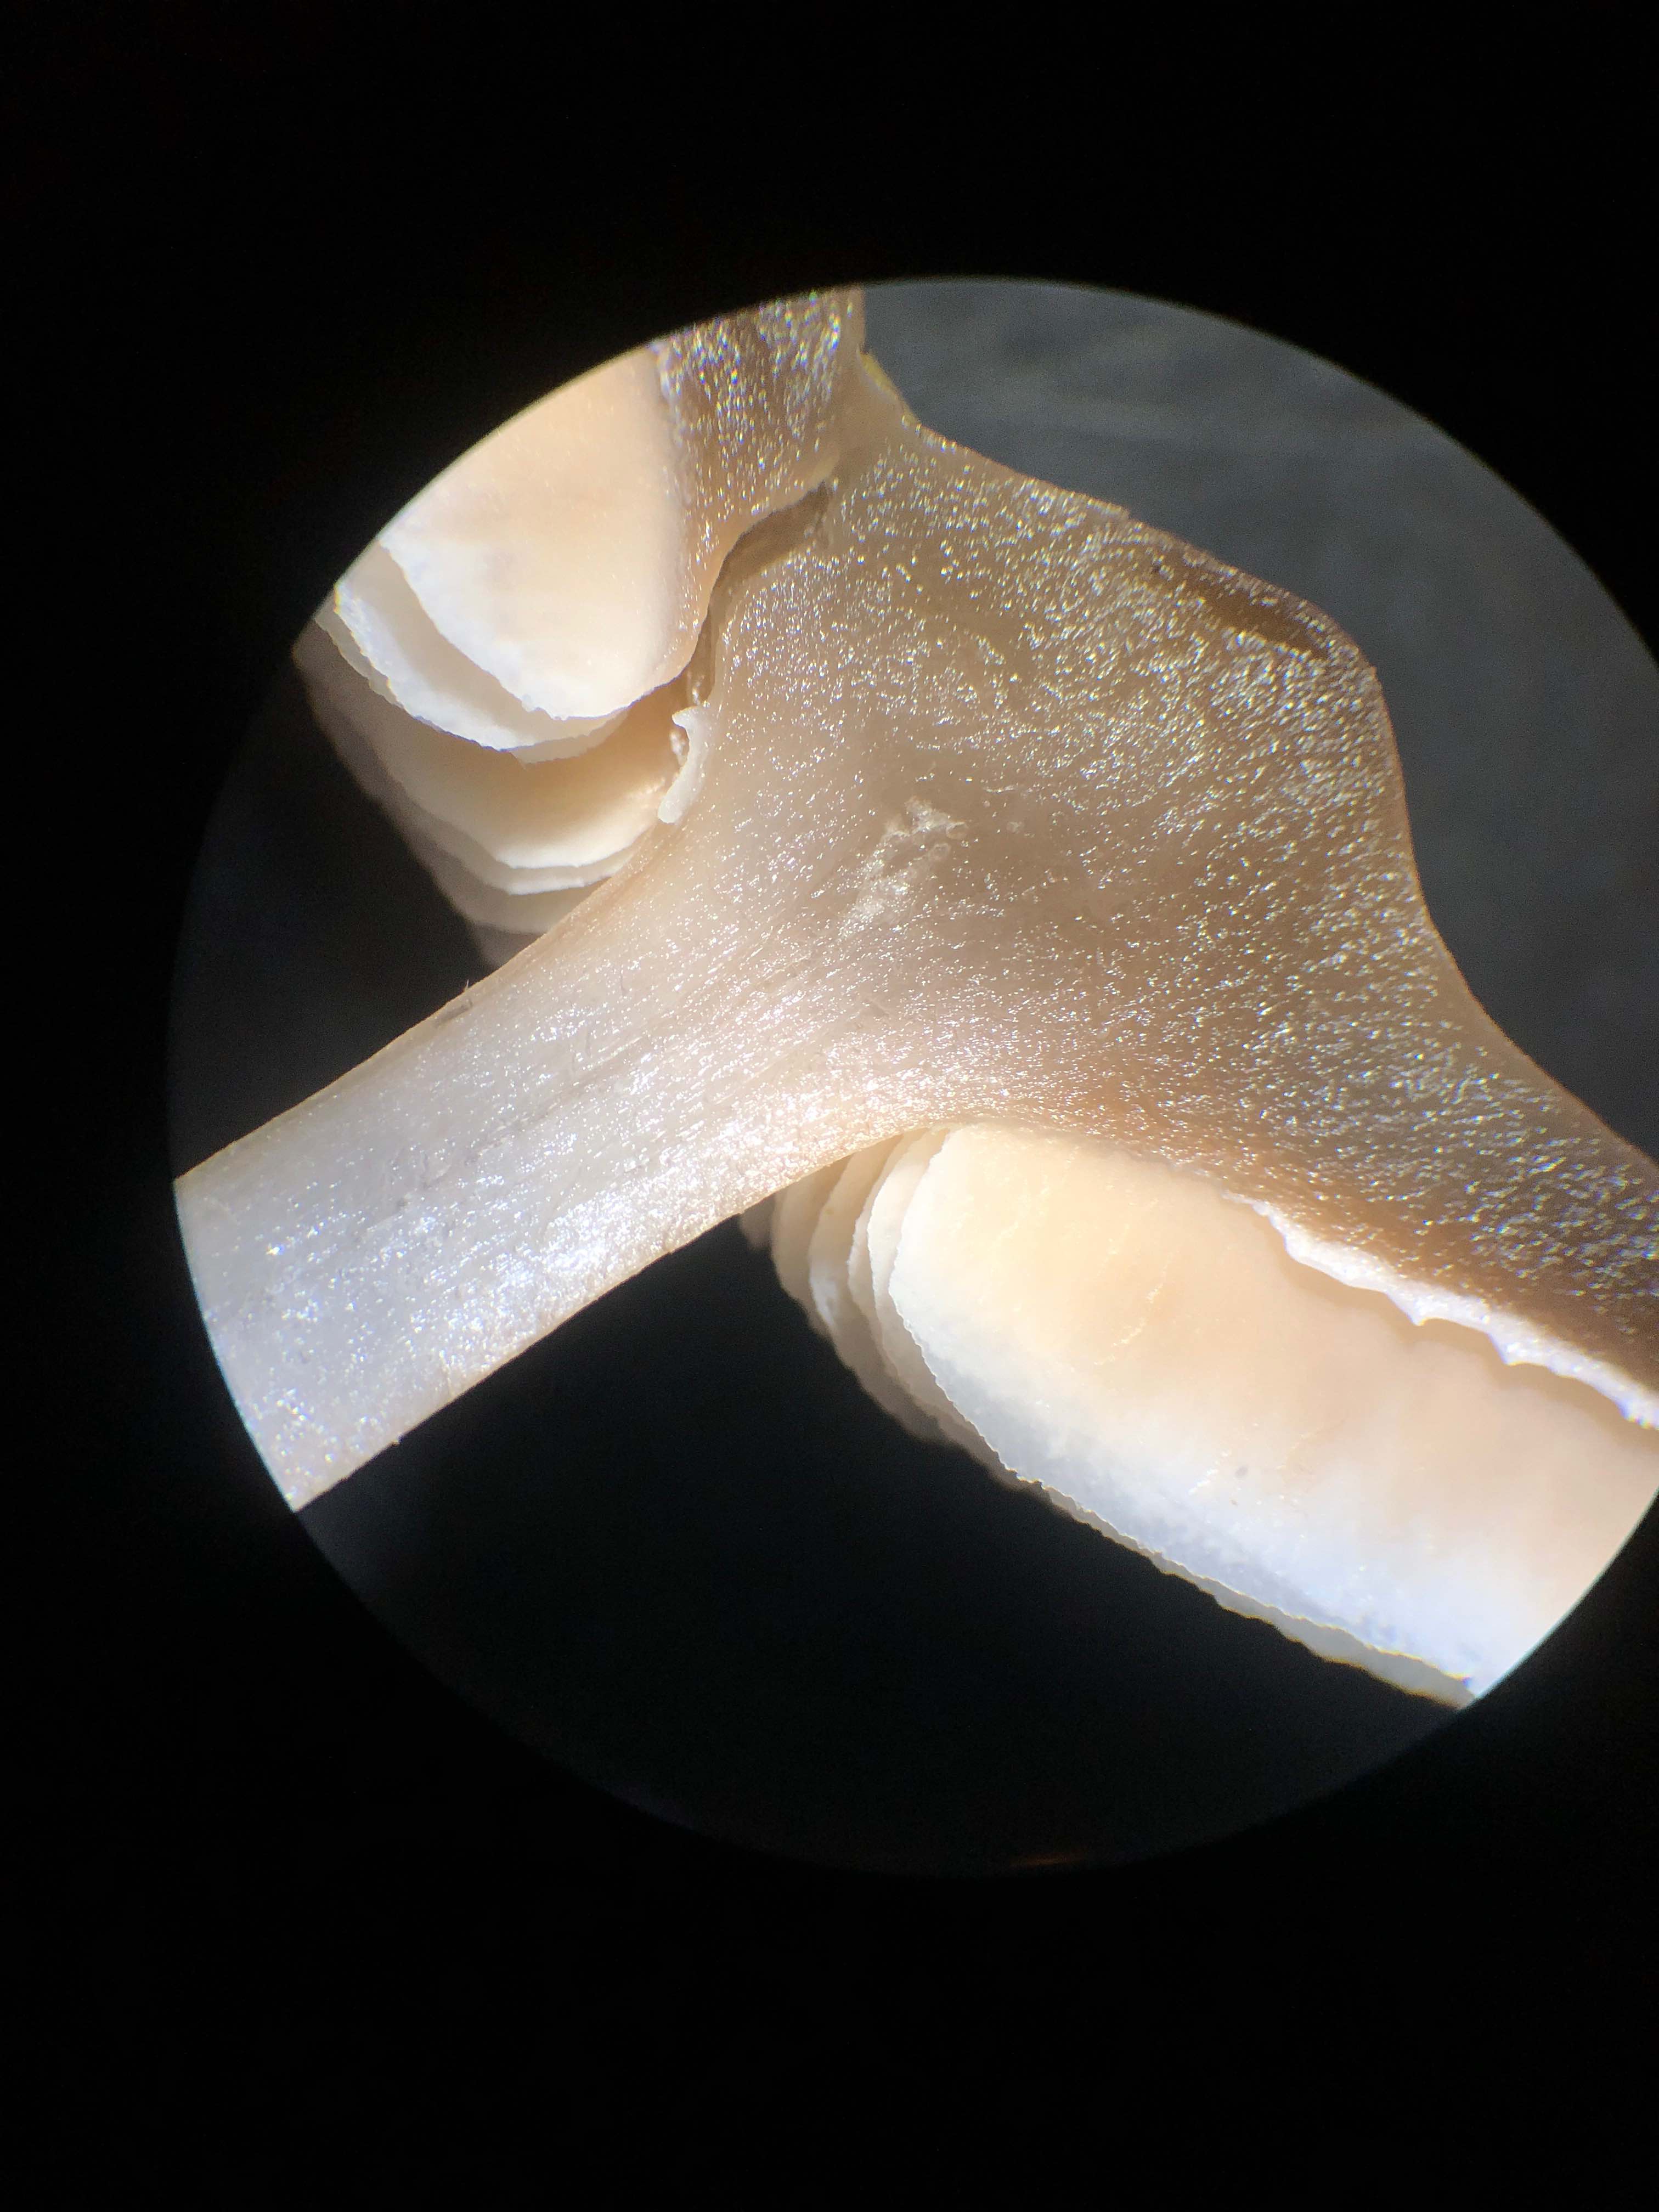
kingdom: Fungi
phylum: Basidiomycota
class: Agaricomycetes
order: Agaricales
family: Omphalotaceae
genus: Rhodocollybia
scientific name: Rhodocollybia asema
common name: horngrå fladhat
